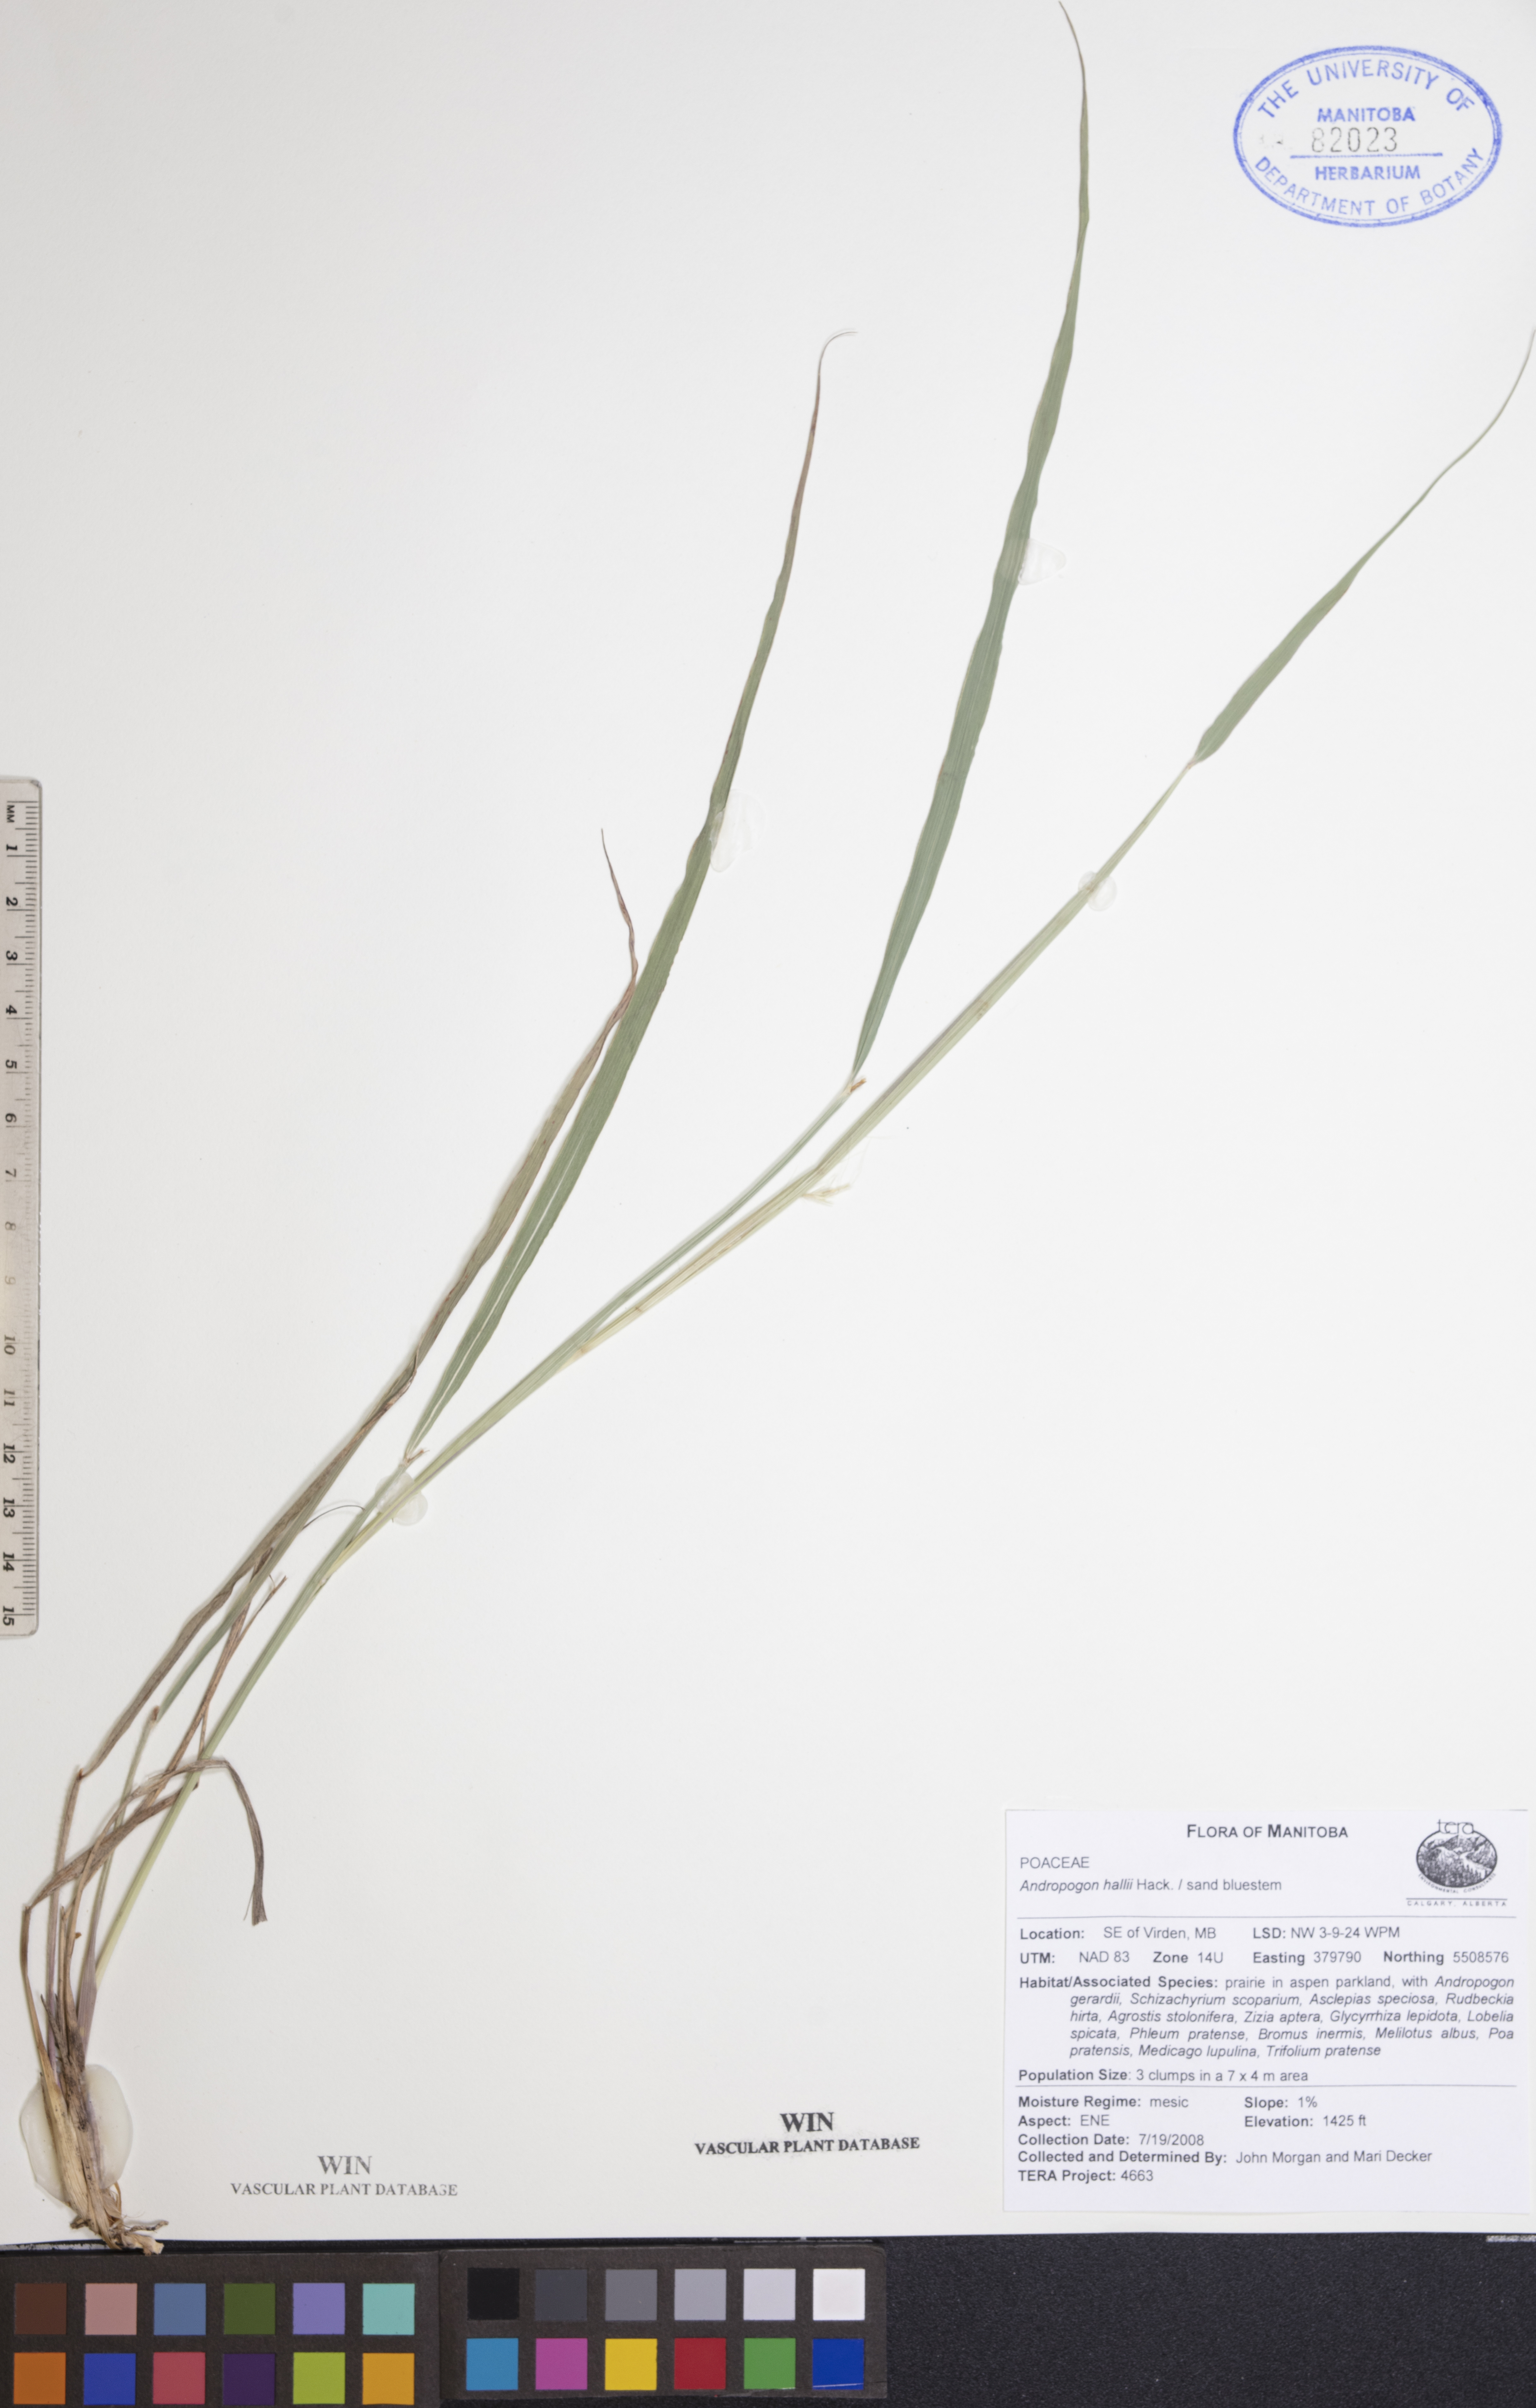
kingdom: Plantae
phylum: Tracheophyta
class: Liliopsida
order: Poales
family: Poaceae
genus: Andropogon
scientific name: Andropogon hallii
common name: Sand bluestem
